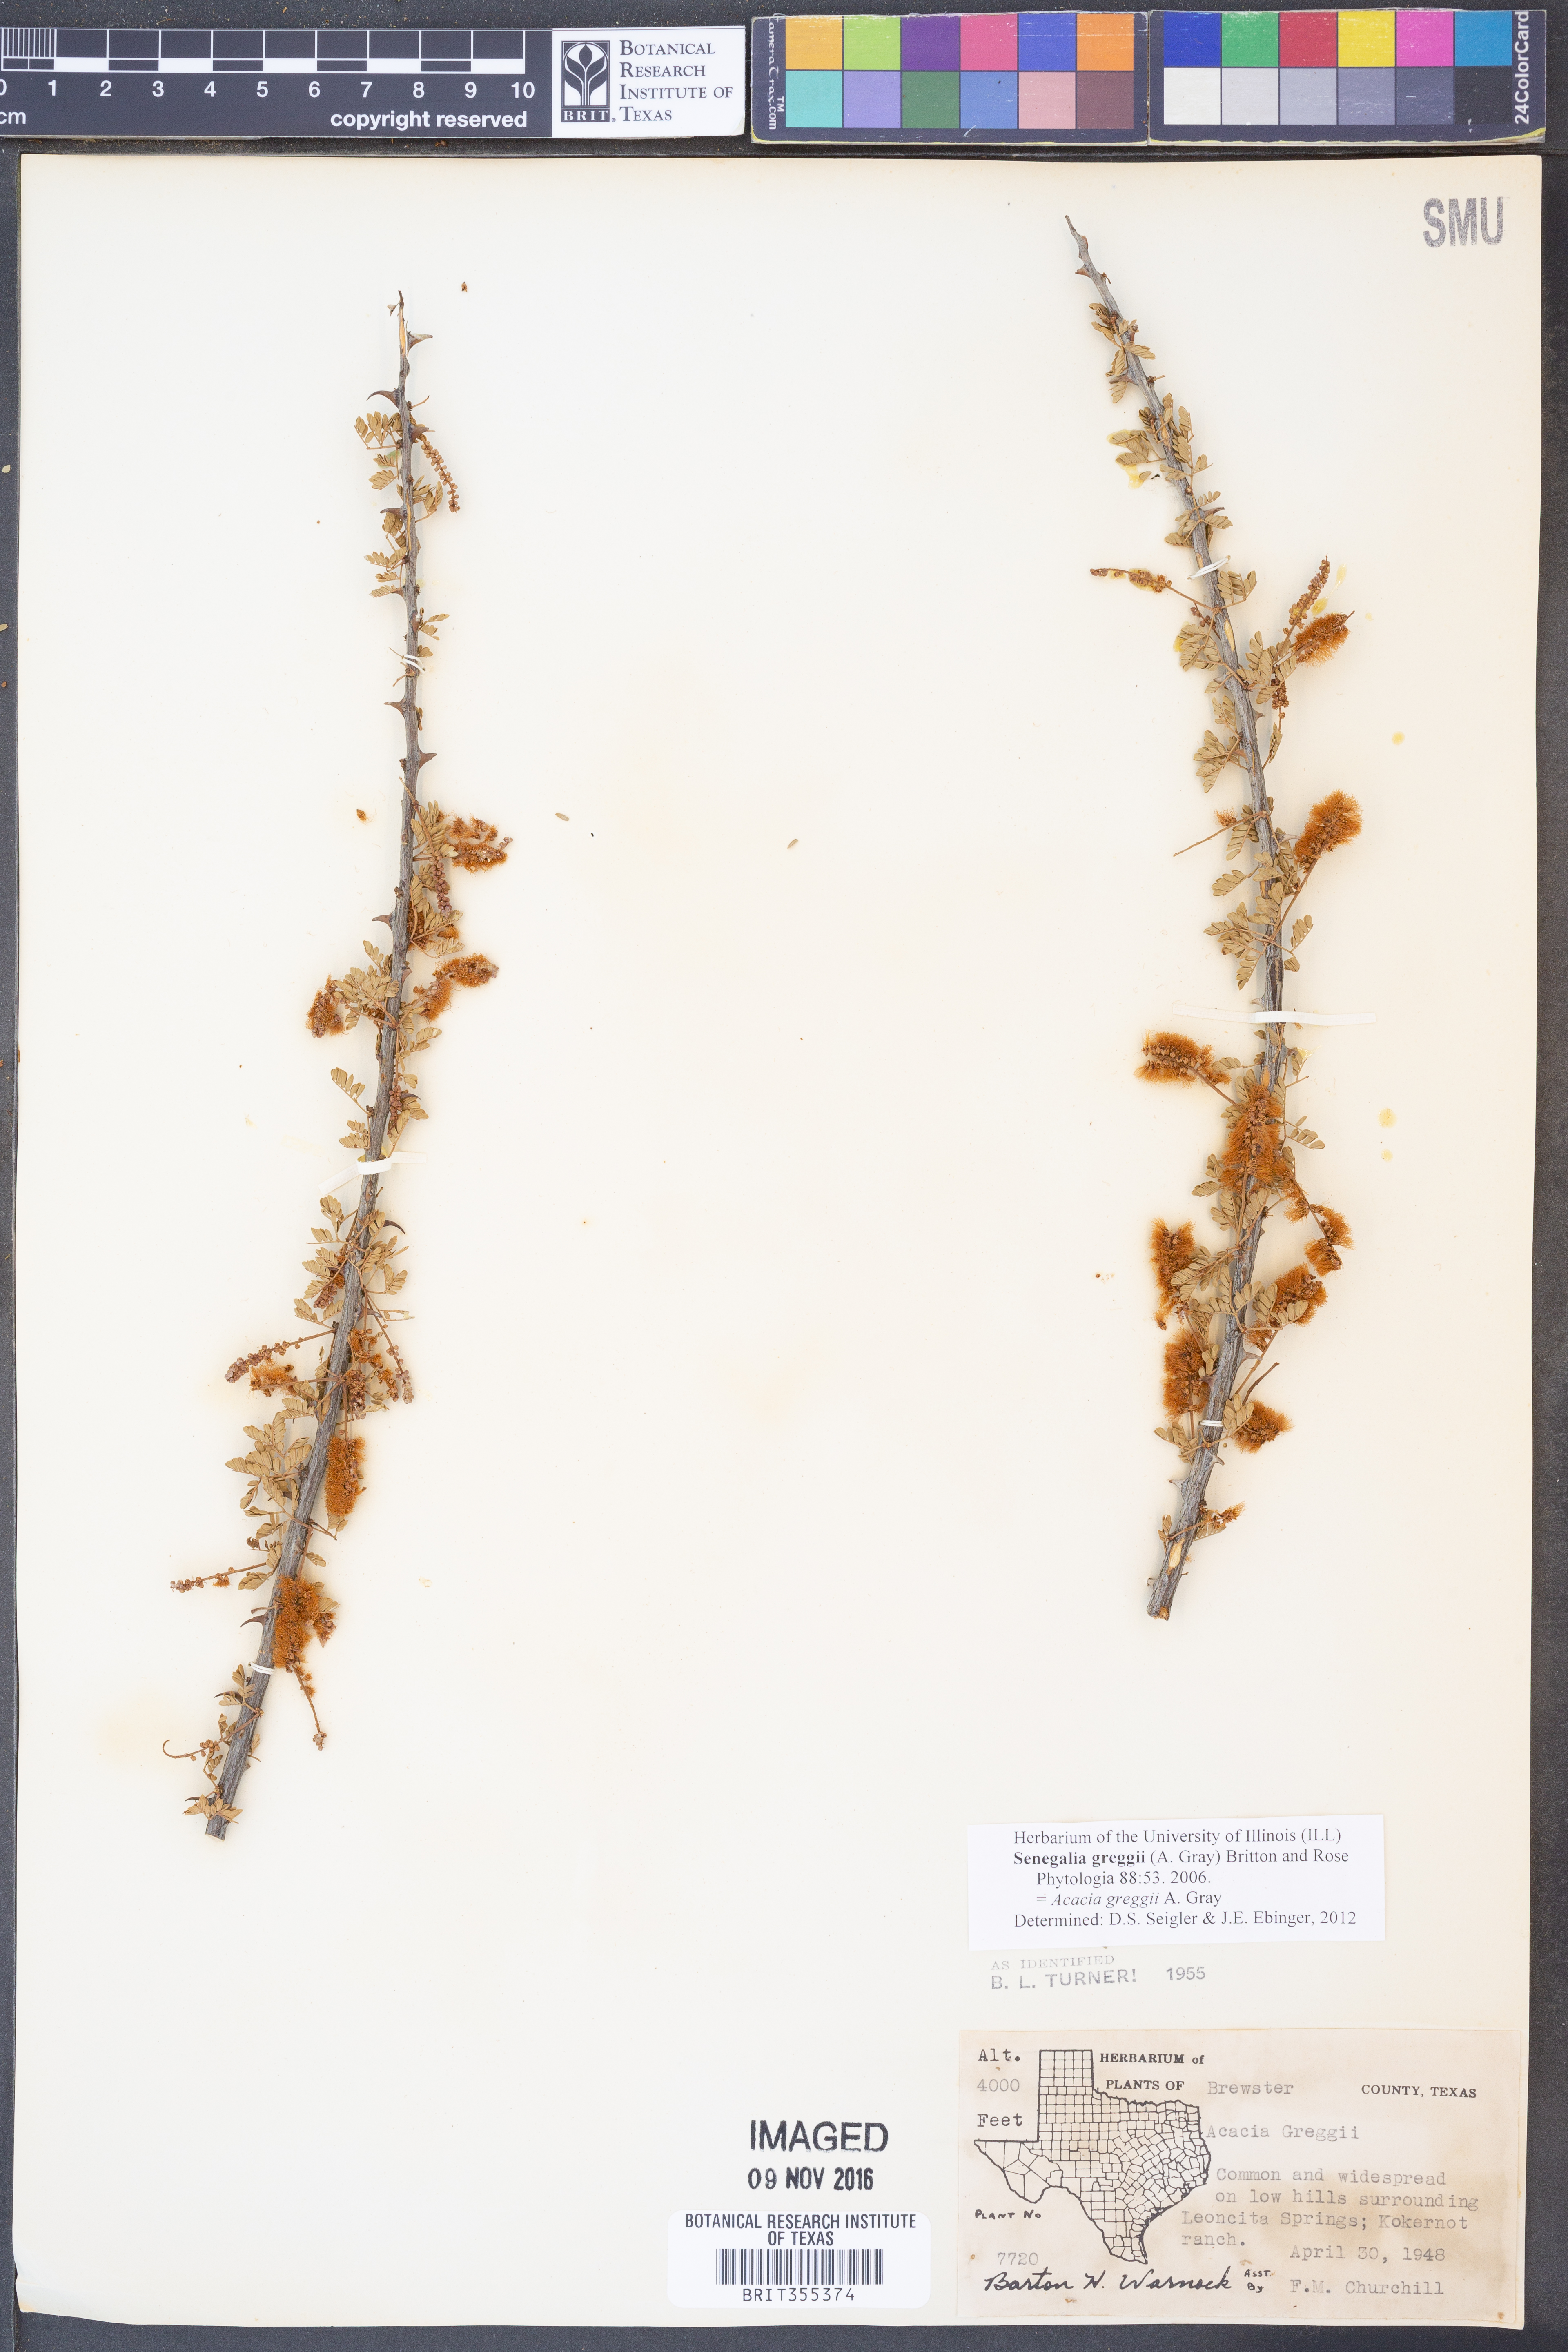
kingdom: Plantae
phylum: Tracheophyta
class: Magnoliopsida
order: Fabales
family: Fabaceae
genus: Senegalia
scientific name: Senegalia greggii
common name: Texas-mimosa
